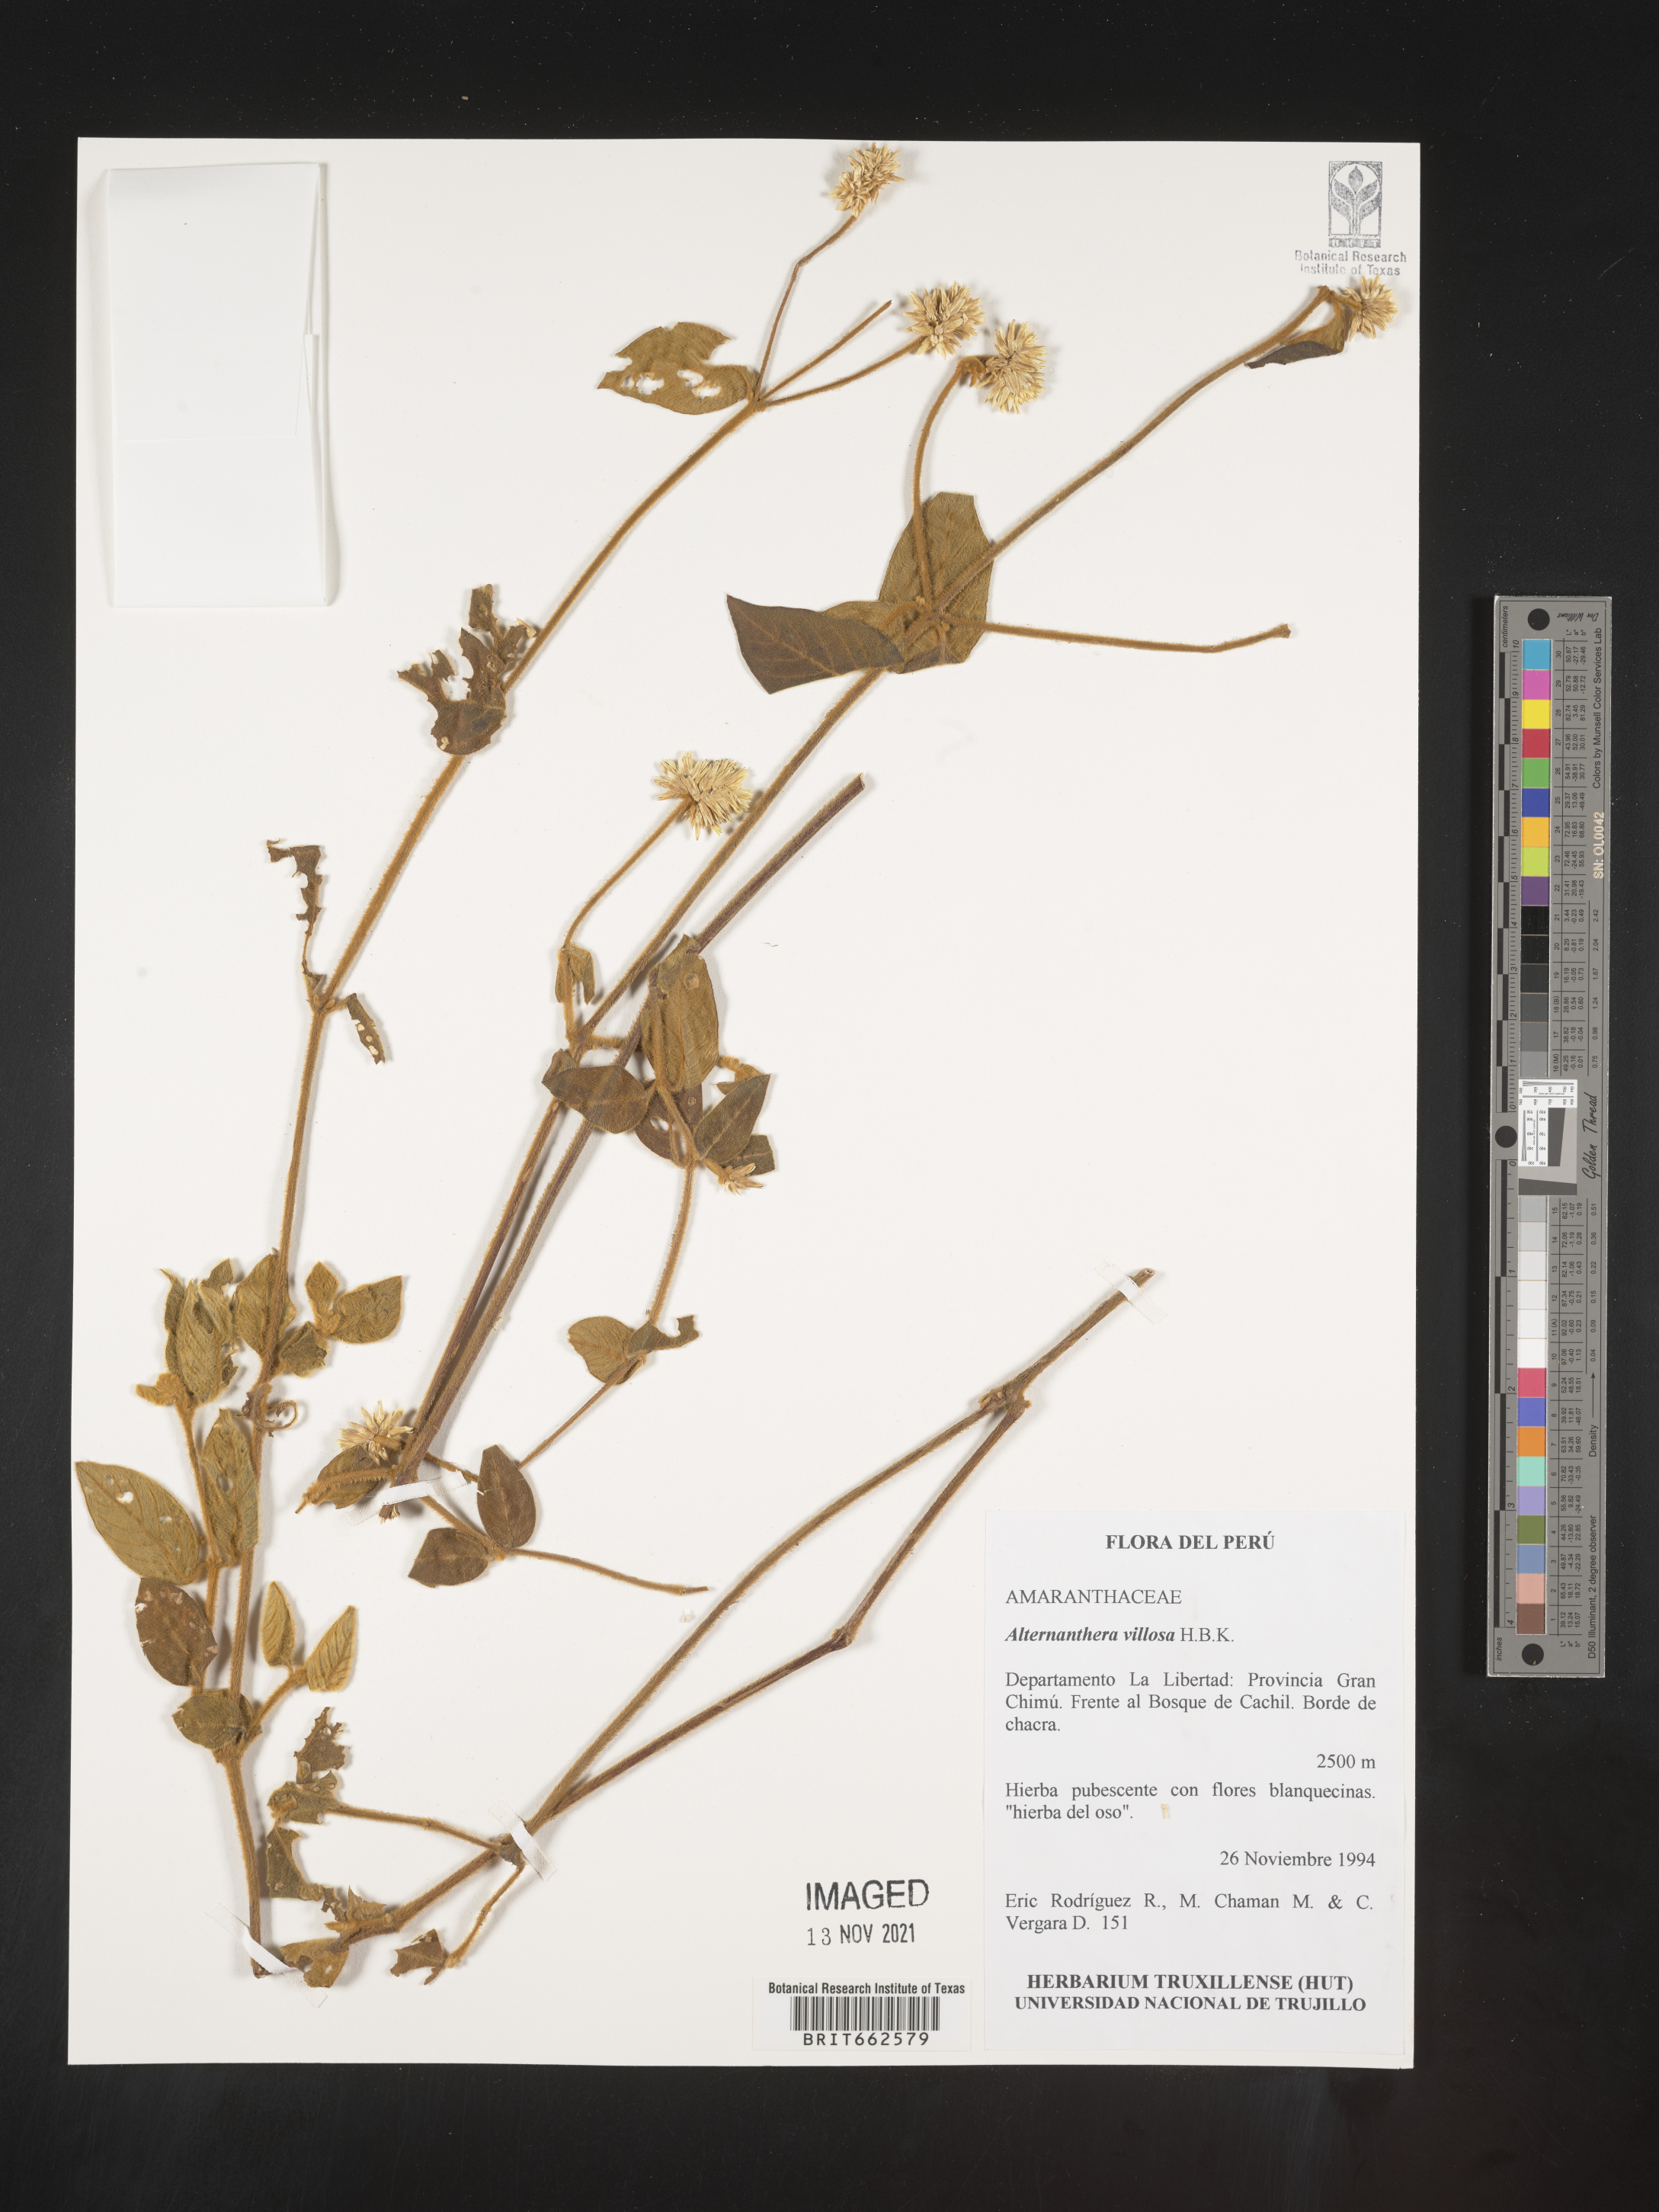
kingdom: Plantae
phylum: Tracheophyta
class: Magnoliopsida
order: Caryophyllales
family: Amaranthaceae
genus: Alternanthera
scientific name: Alternanthera
